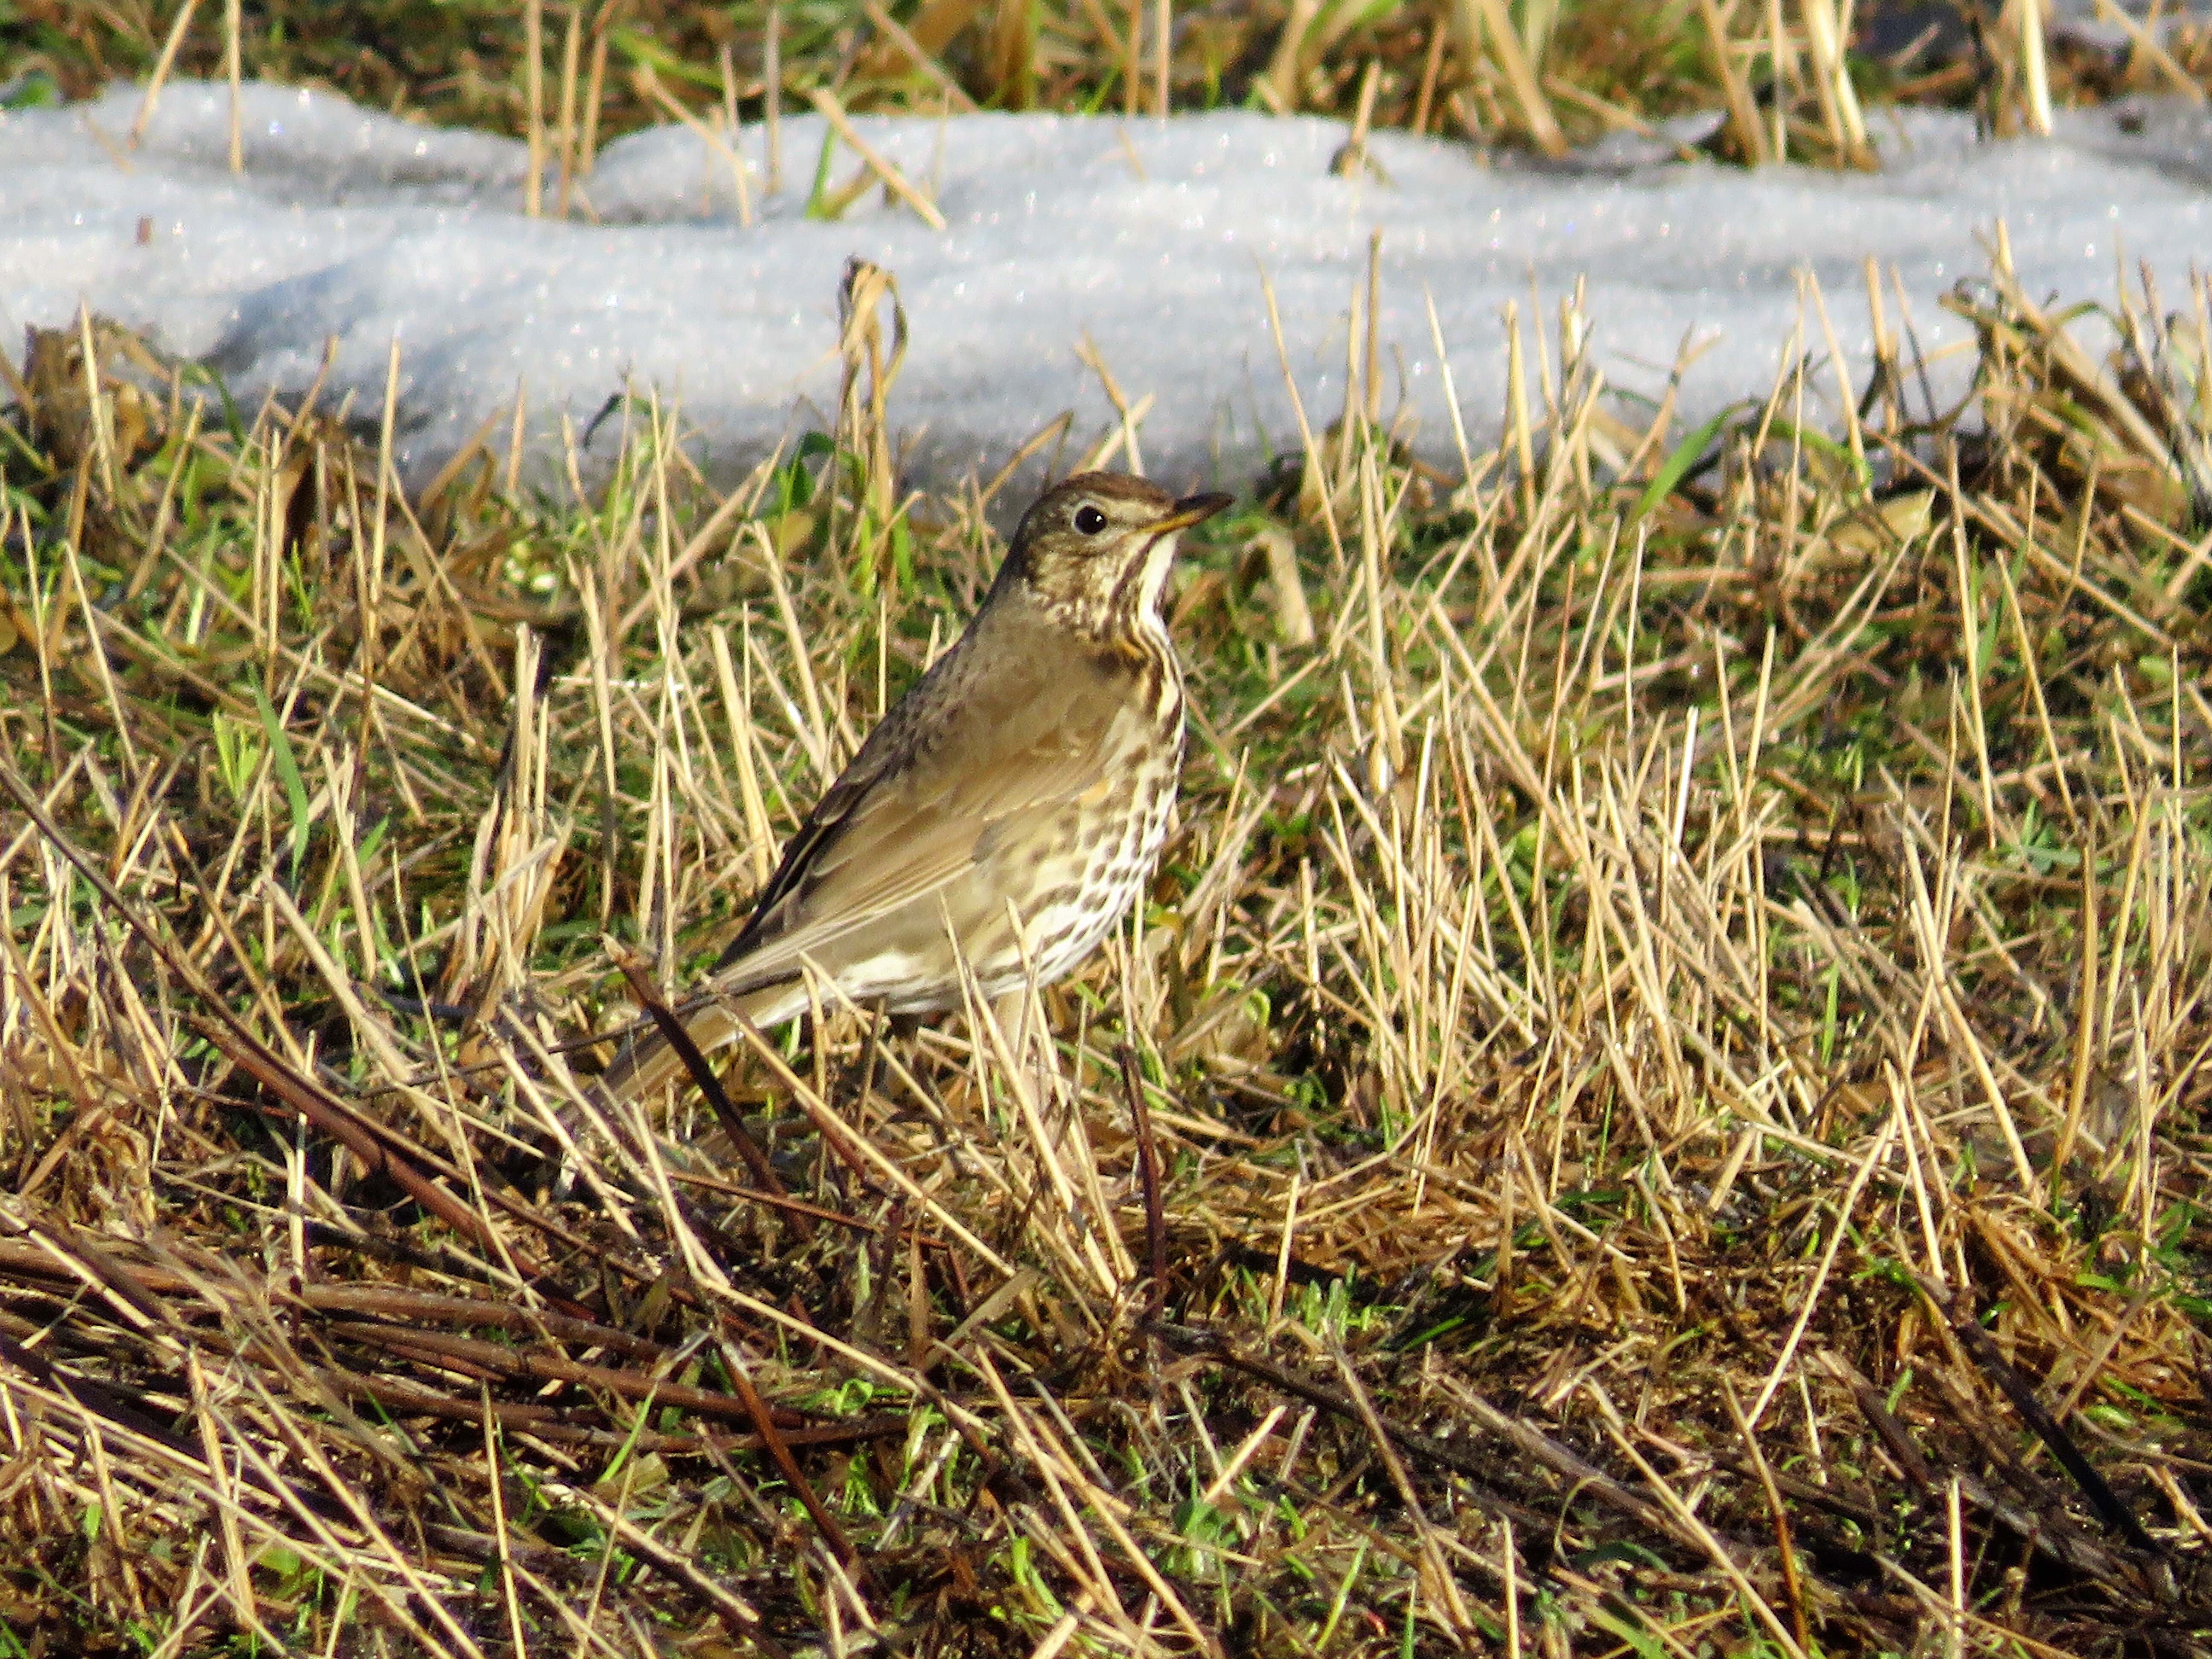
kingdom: Animalia
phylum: Chordata
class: Aves
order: Passeriformes
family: Turdidae
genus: Turdus
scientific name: Turdus viscivorus
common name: Mistle thrush
